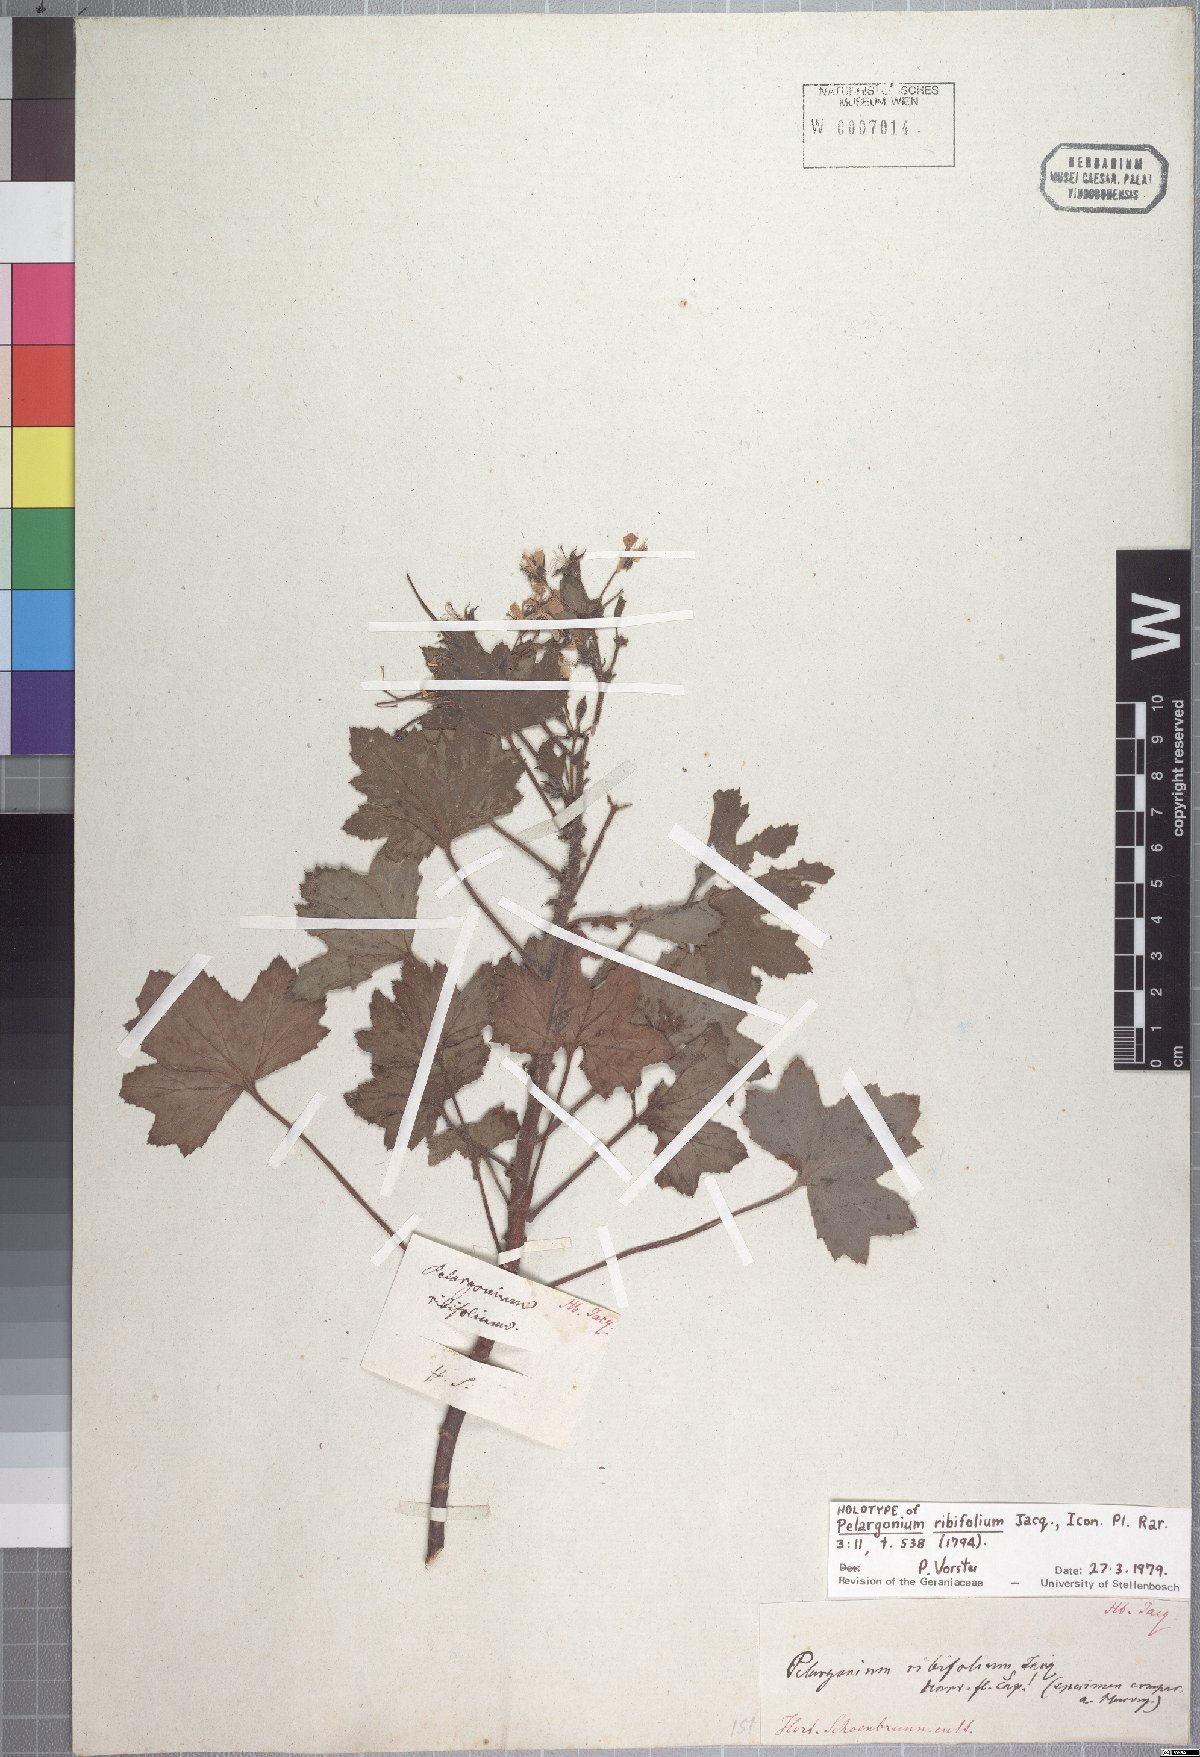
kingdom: Plantae
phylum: Tracheophyta
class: Magnoliopsida
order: Geraniales
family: Geraniaceae
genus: Pelargonium
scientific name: Pelargonium ribifolium
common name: Currant-leaf pelargonium
